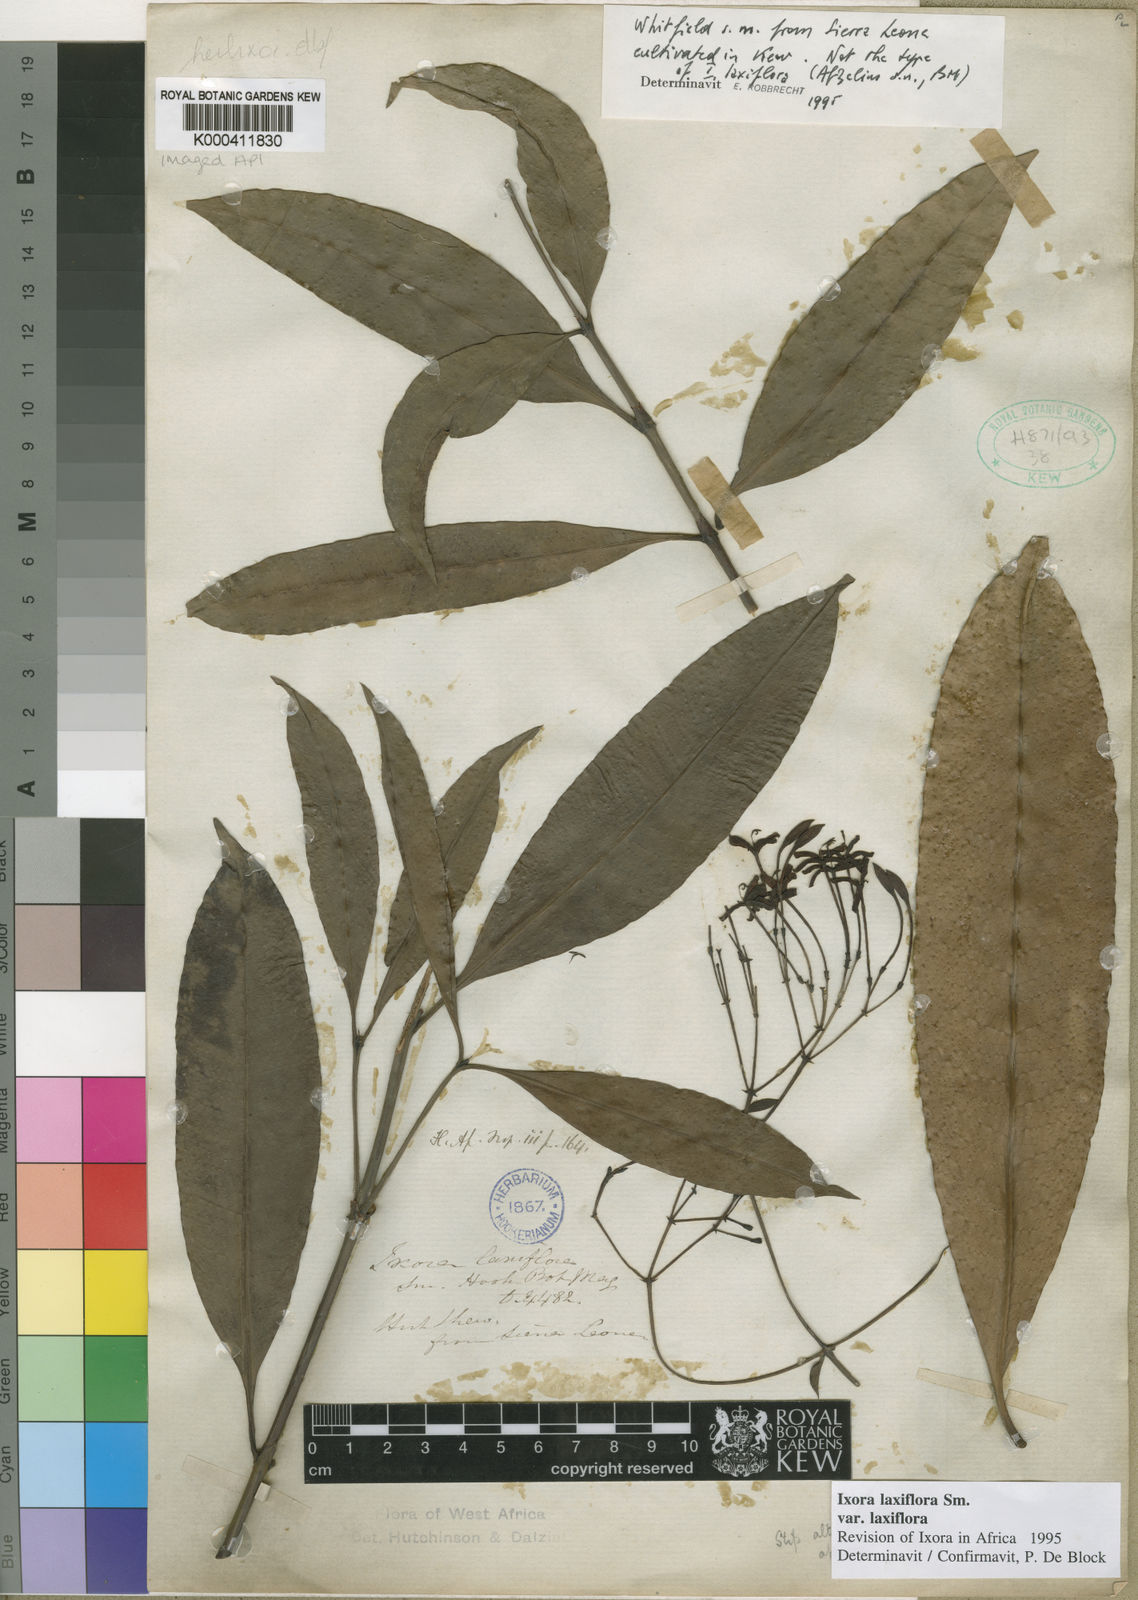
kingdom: Plantae
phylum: Tracheophyta
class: Magnoliopsida
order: Gentianales
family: Rubiaceae
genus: Ixora
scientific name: Ixora laxiflora
